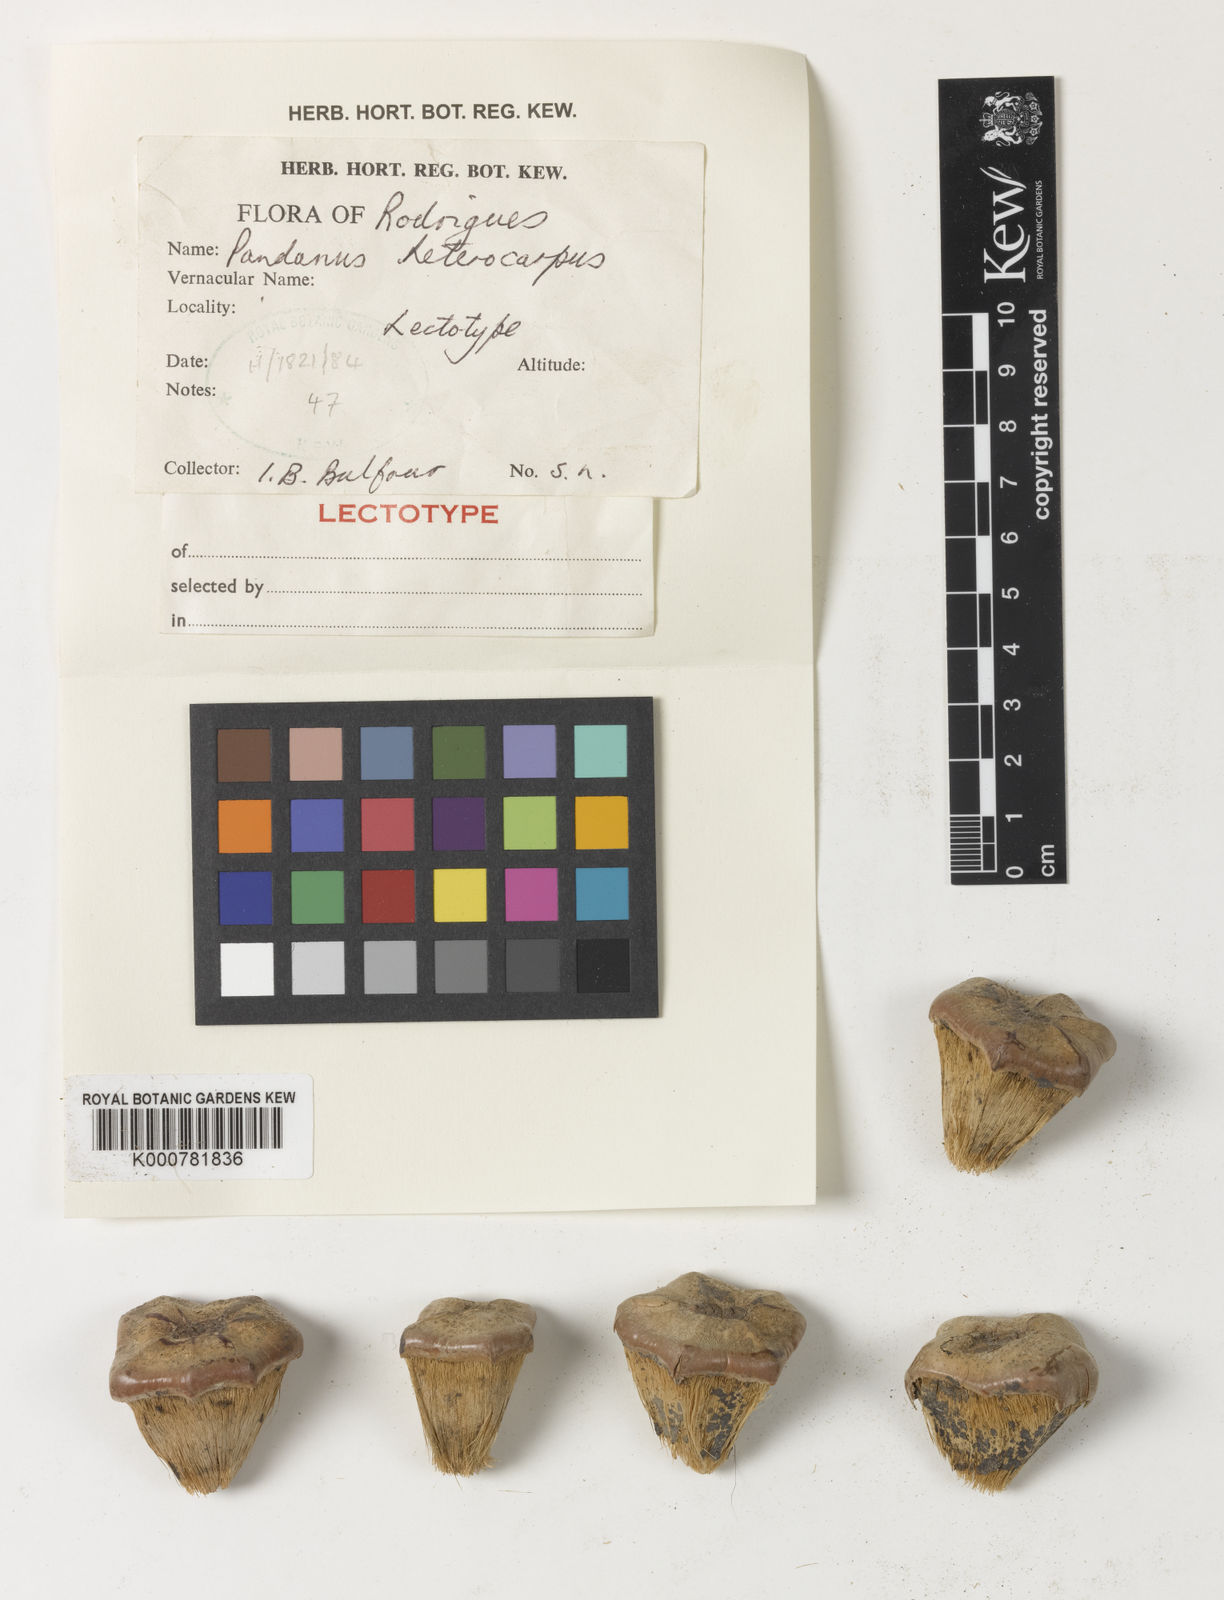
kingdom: Plantae
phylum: Tracheophyta
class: Liliopsida
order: Pandanales
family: Pandanaceae
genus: Pandanus
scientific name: Pandanus heterocarpus
